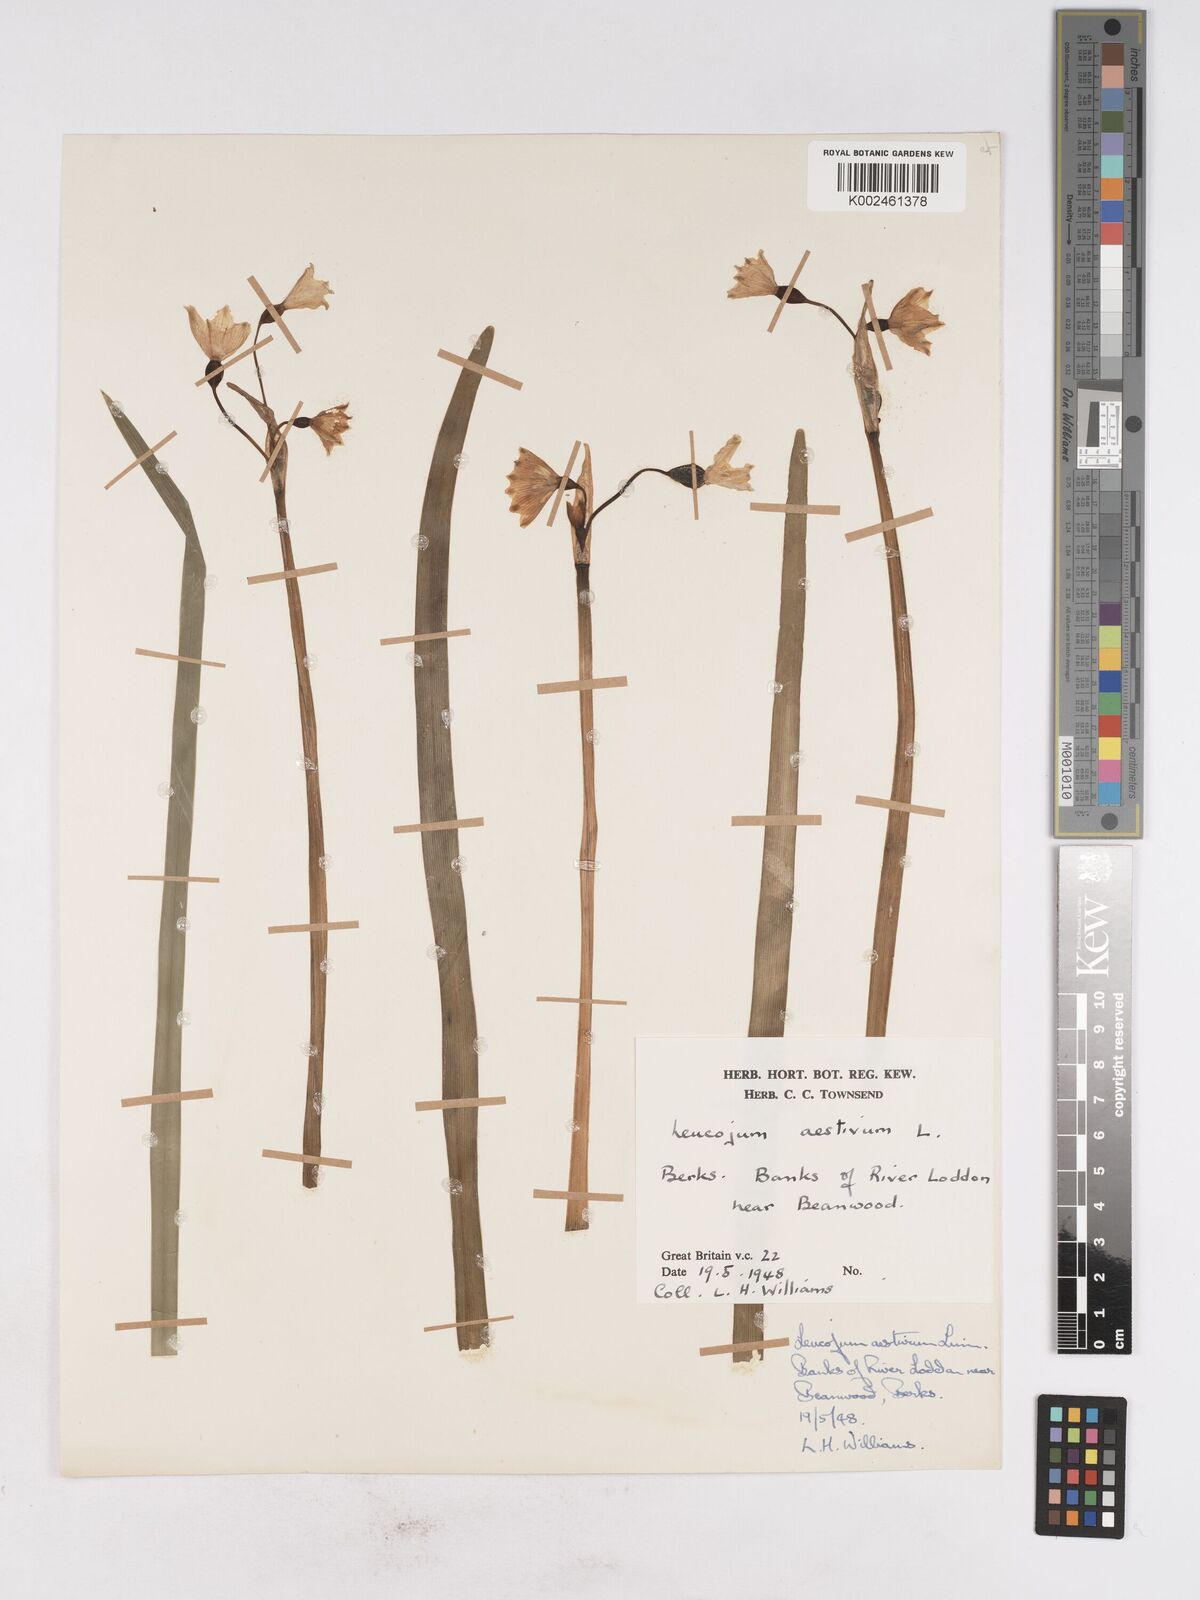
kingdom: Plantae
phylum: Tracheophyta
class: Liliopsida
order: Asparagales
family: Amaryllidaceae
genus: Leucojum
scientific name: Leucojum aestivum
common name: Summer snowflake
